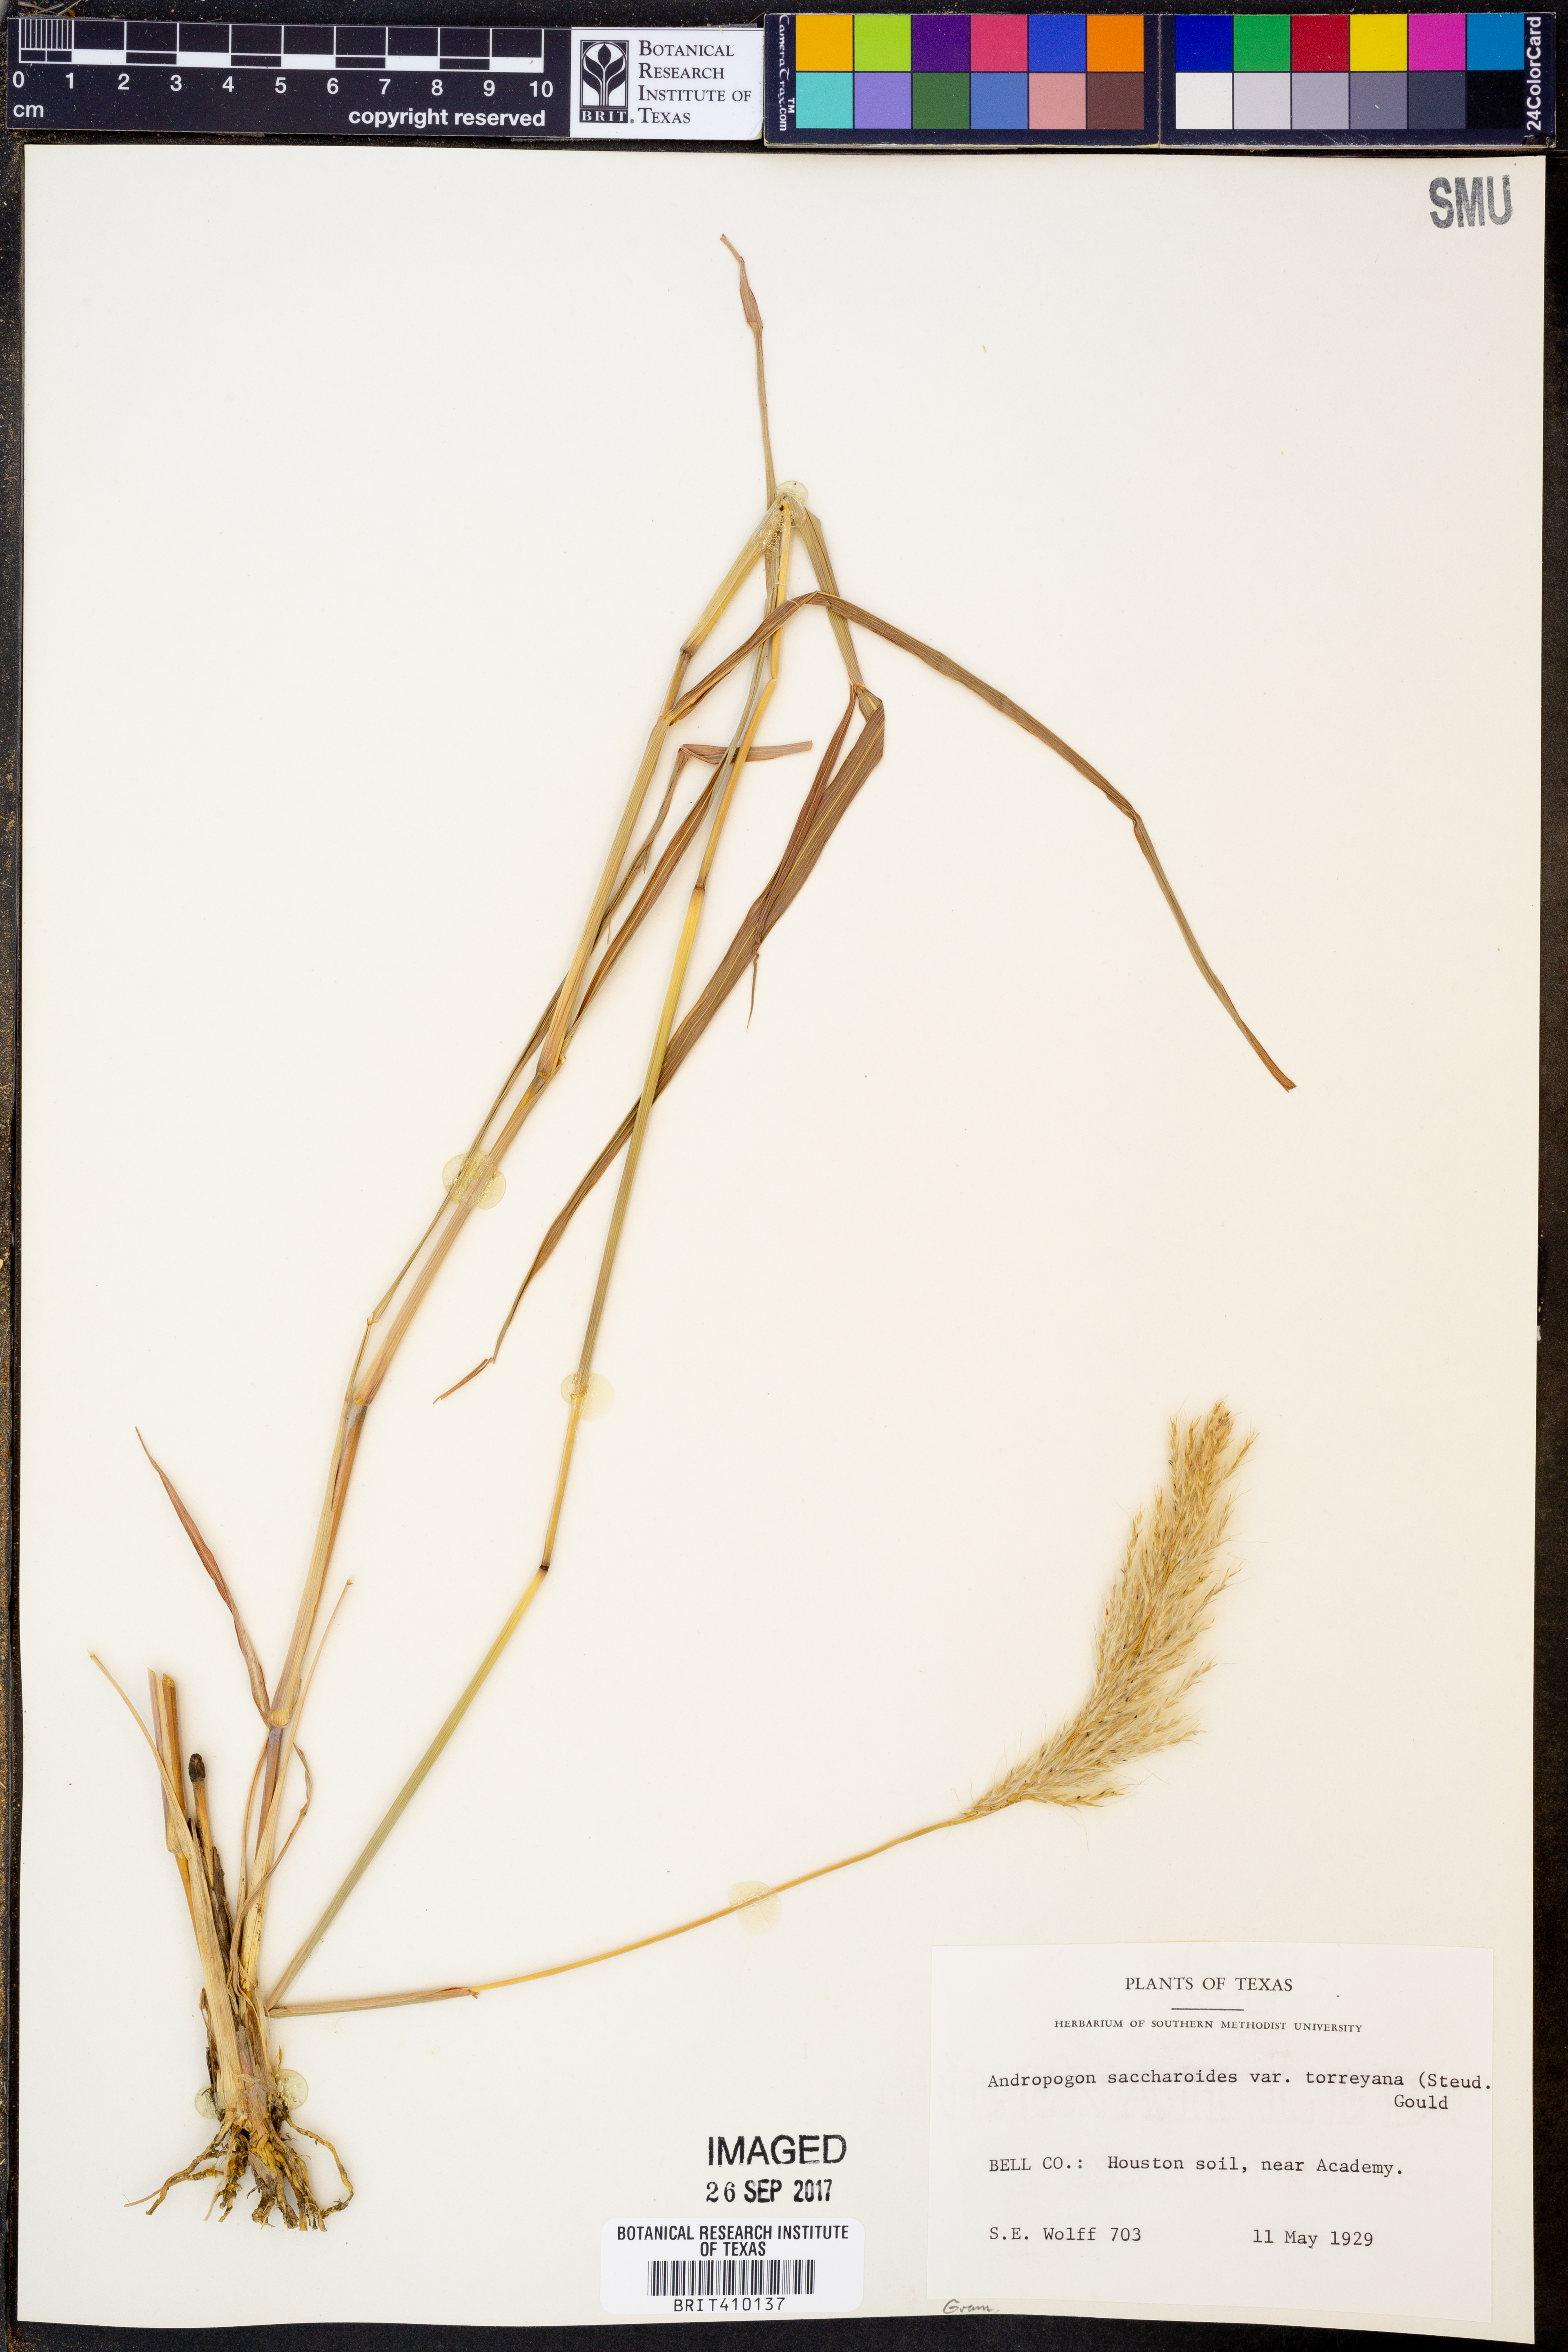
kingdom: Plantae
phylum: Tracheophyta
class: Liliopsida
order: Poales
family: Poaceae
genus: Bothriochloa
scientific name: Bothriochloa torreyana
